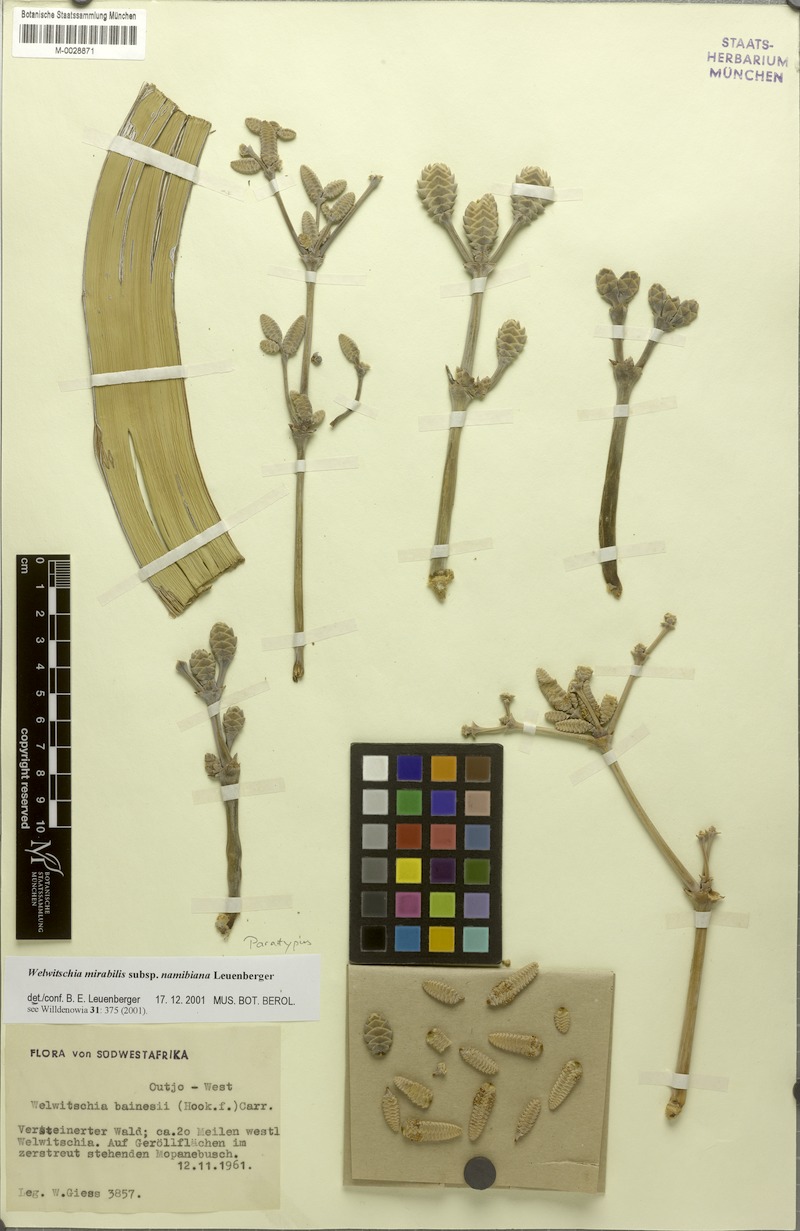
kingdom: Plantae
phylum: Tracheophyta
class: Gnetopsida
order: Welwitschiales
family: Welwitschiaceae
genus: Welwitschia
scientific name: Welwitschia mirabilis
